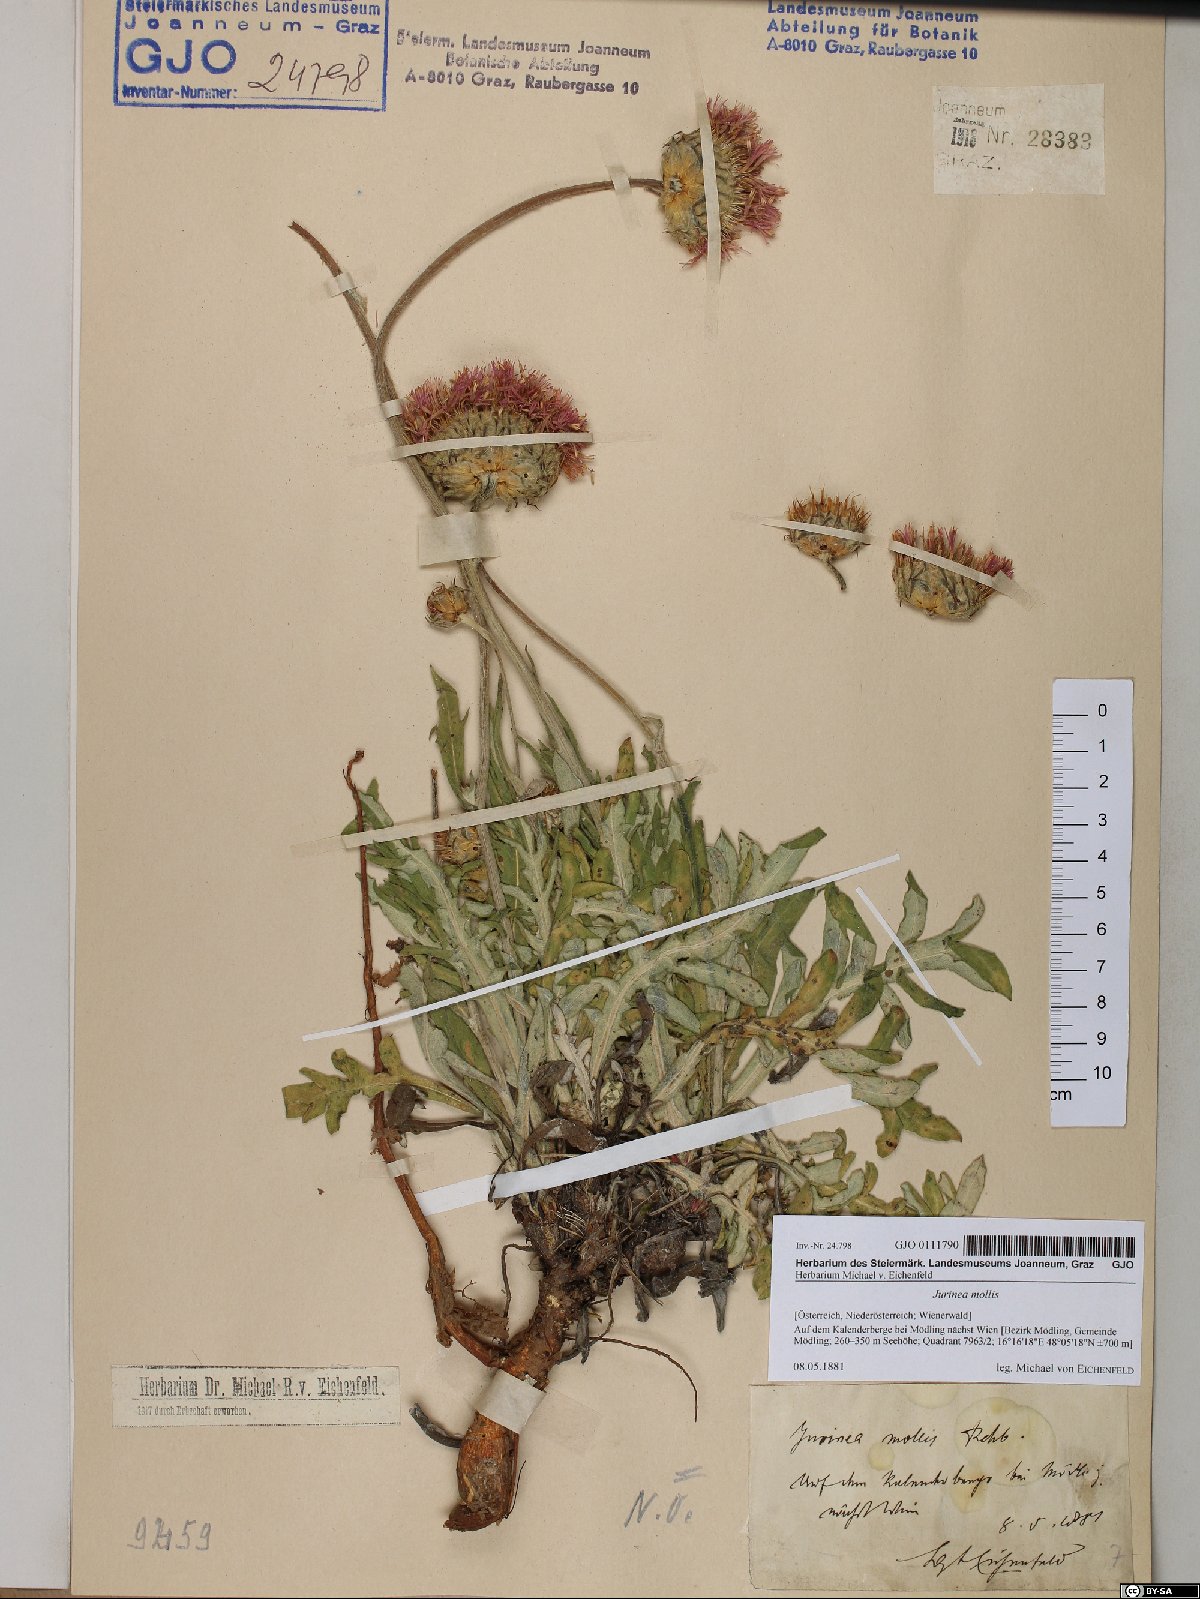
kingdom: Plantae
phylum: Tracheophyta
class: Magnoliopsida
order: Asterales
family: Asteraceae
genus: Jurinea
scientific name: Jurinea mollis
